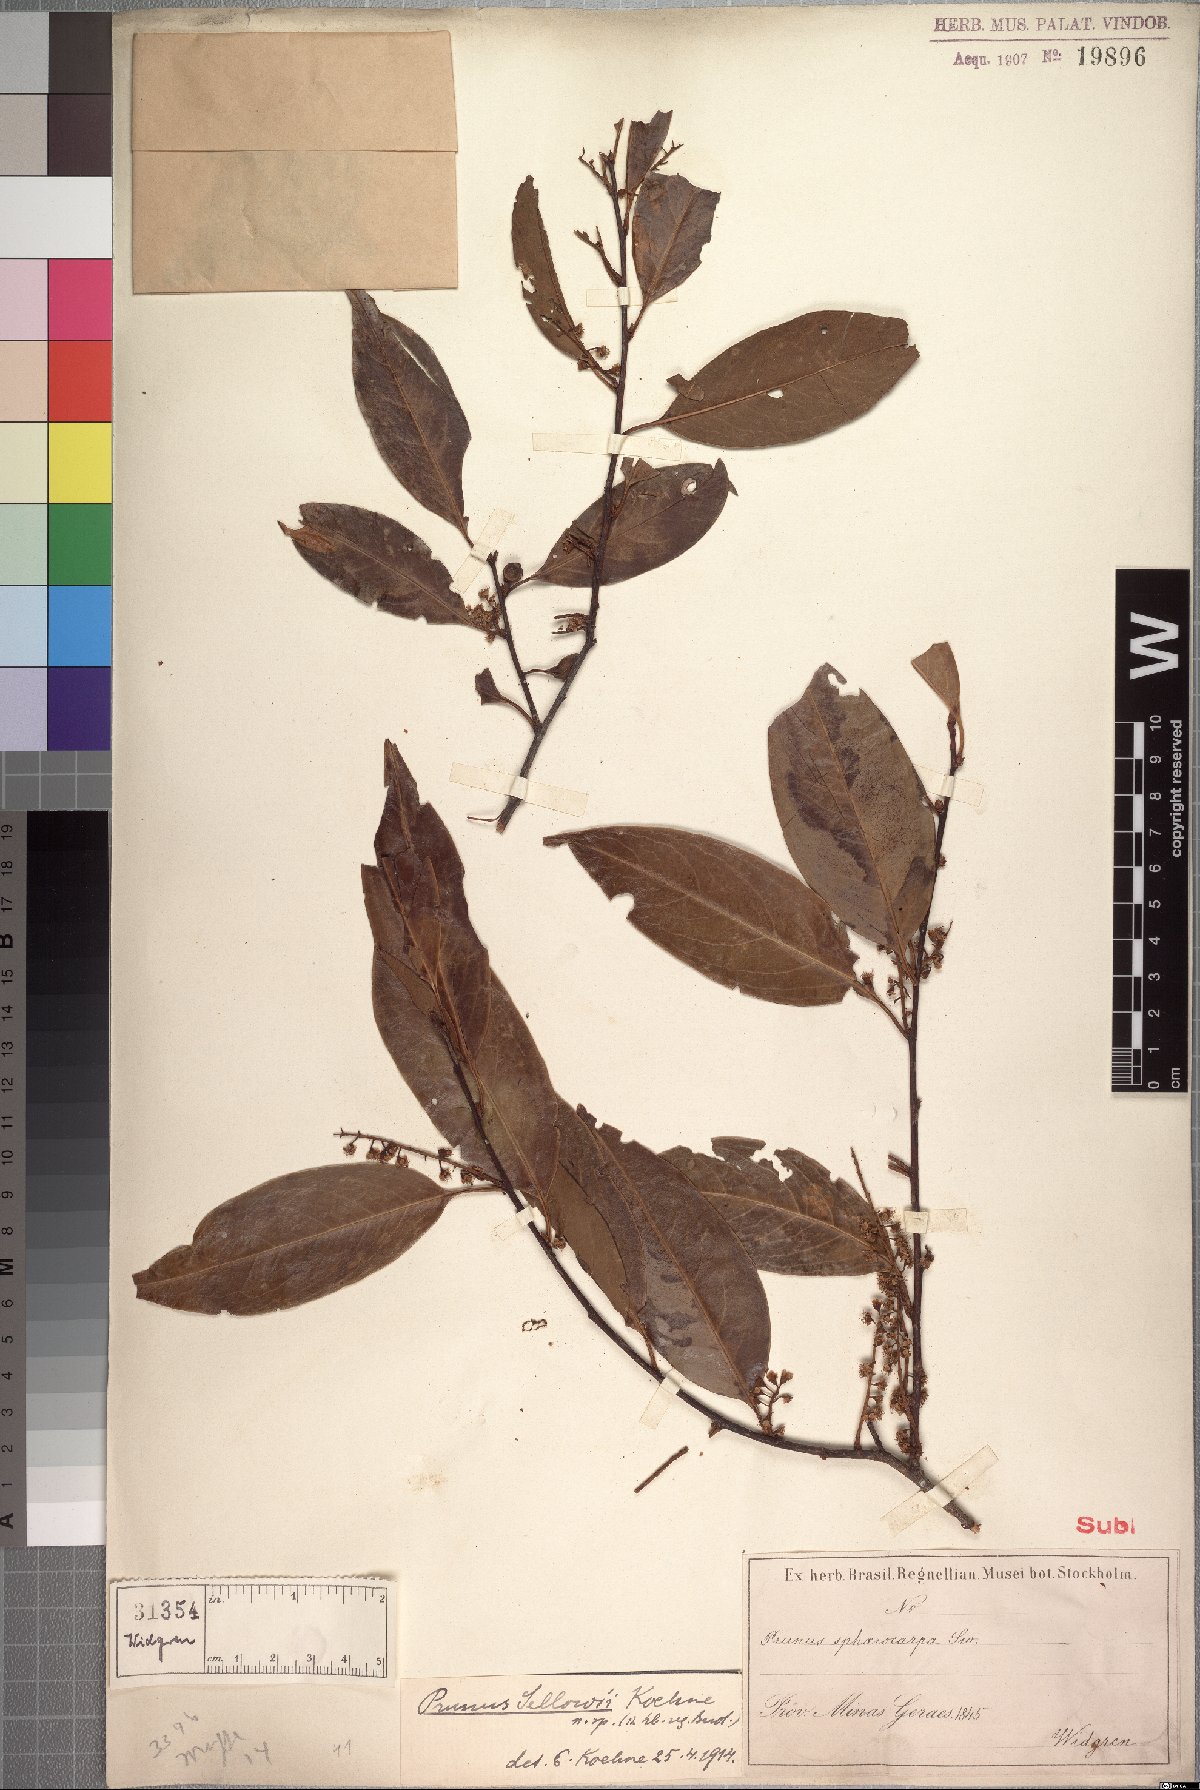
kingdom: Plantae
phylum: Tracheophyta
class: Magnoliopsida
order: Rosales
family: Rosaceae
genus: Prunus
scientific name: Prunus reflexa
